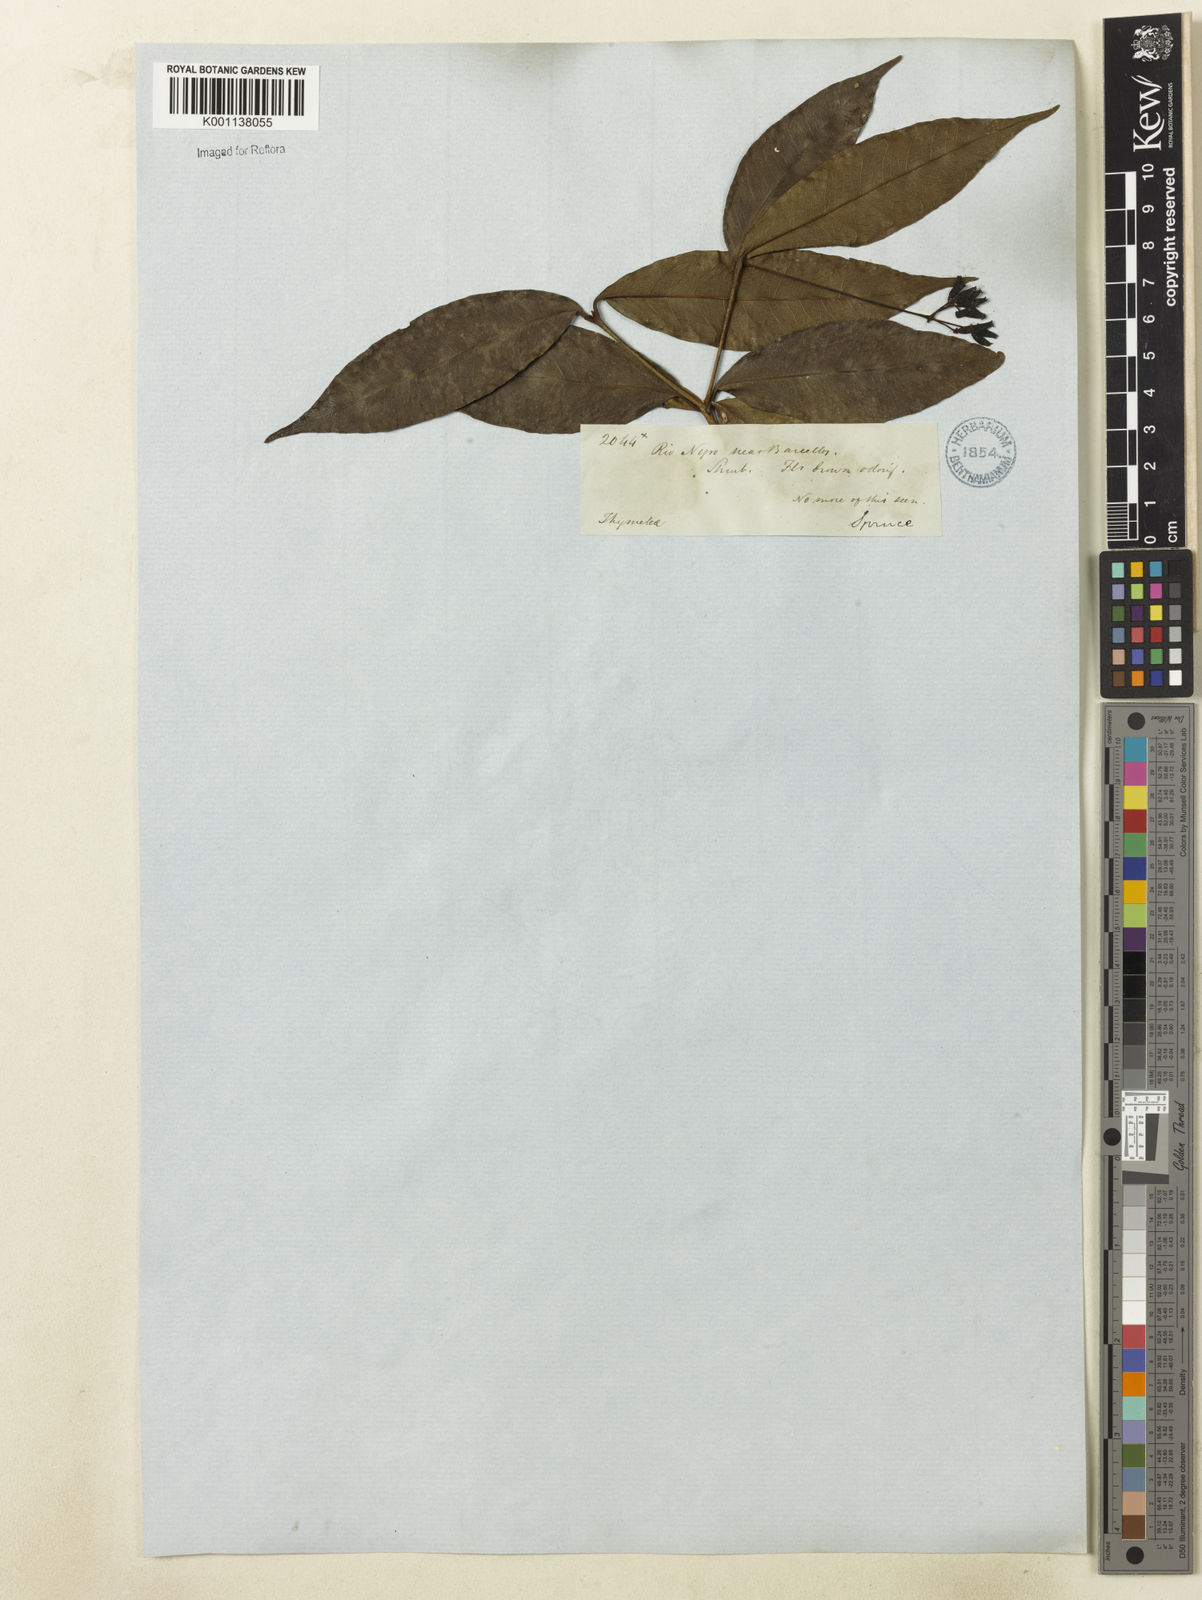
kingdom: Plantae
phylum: Tracheophyta
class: Magnoliopsida
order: Caryophyllales
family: Nyctaginaceae
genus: Neea
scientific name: Neea
